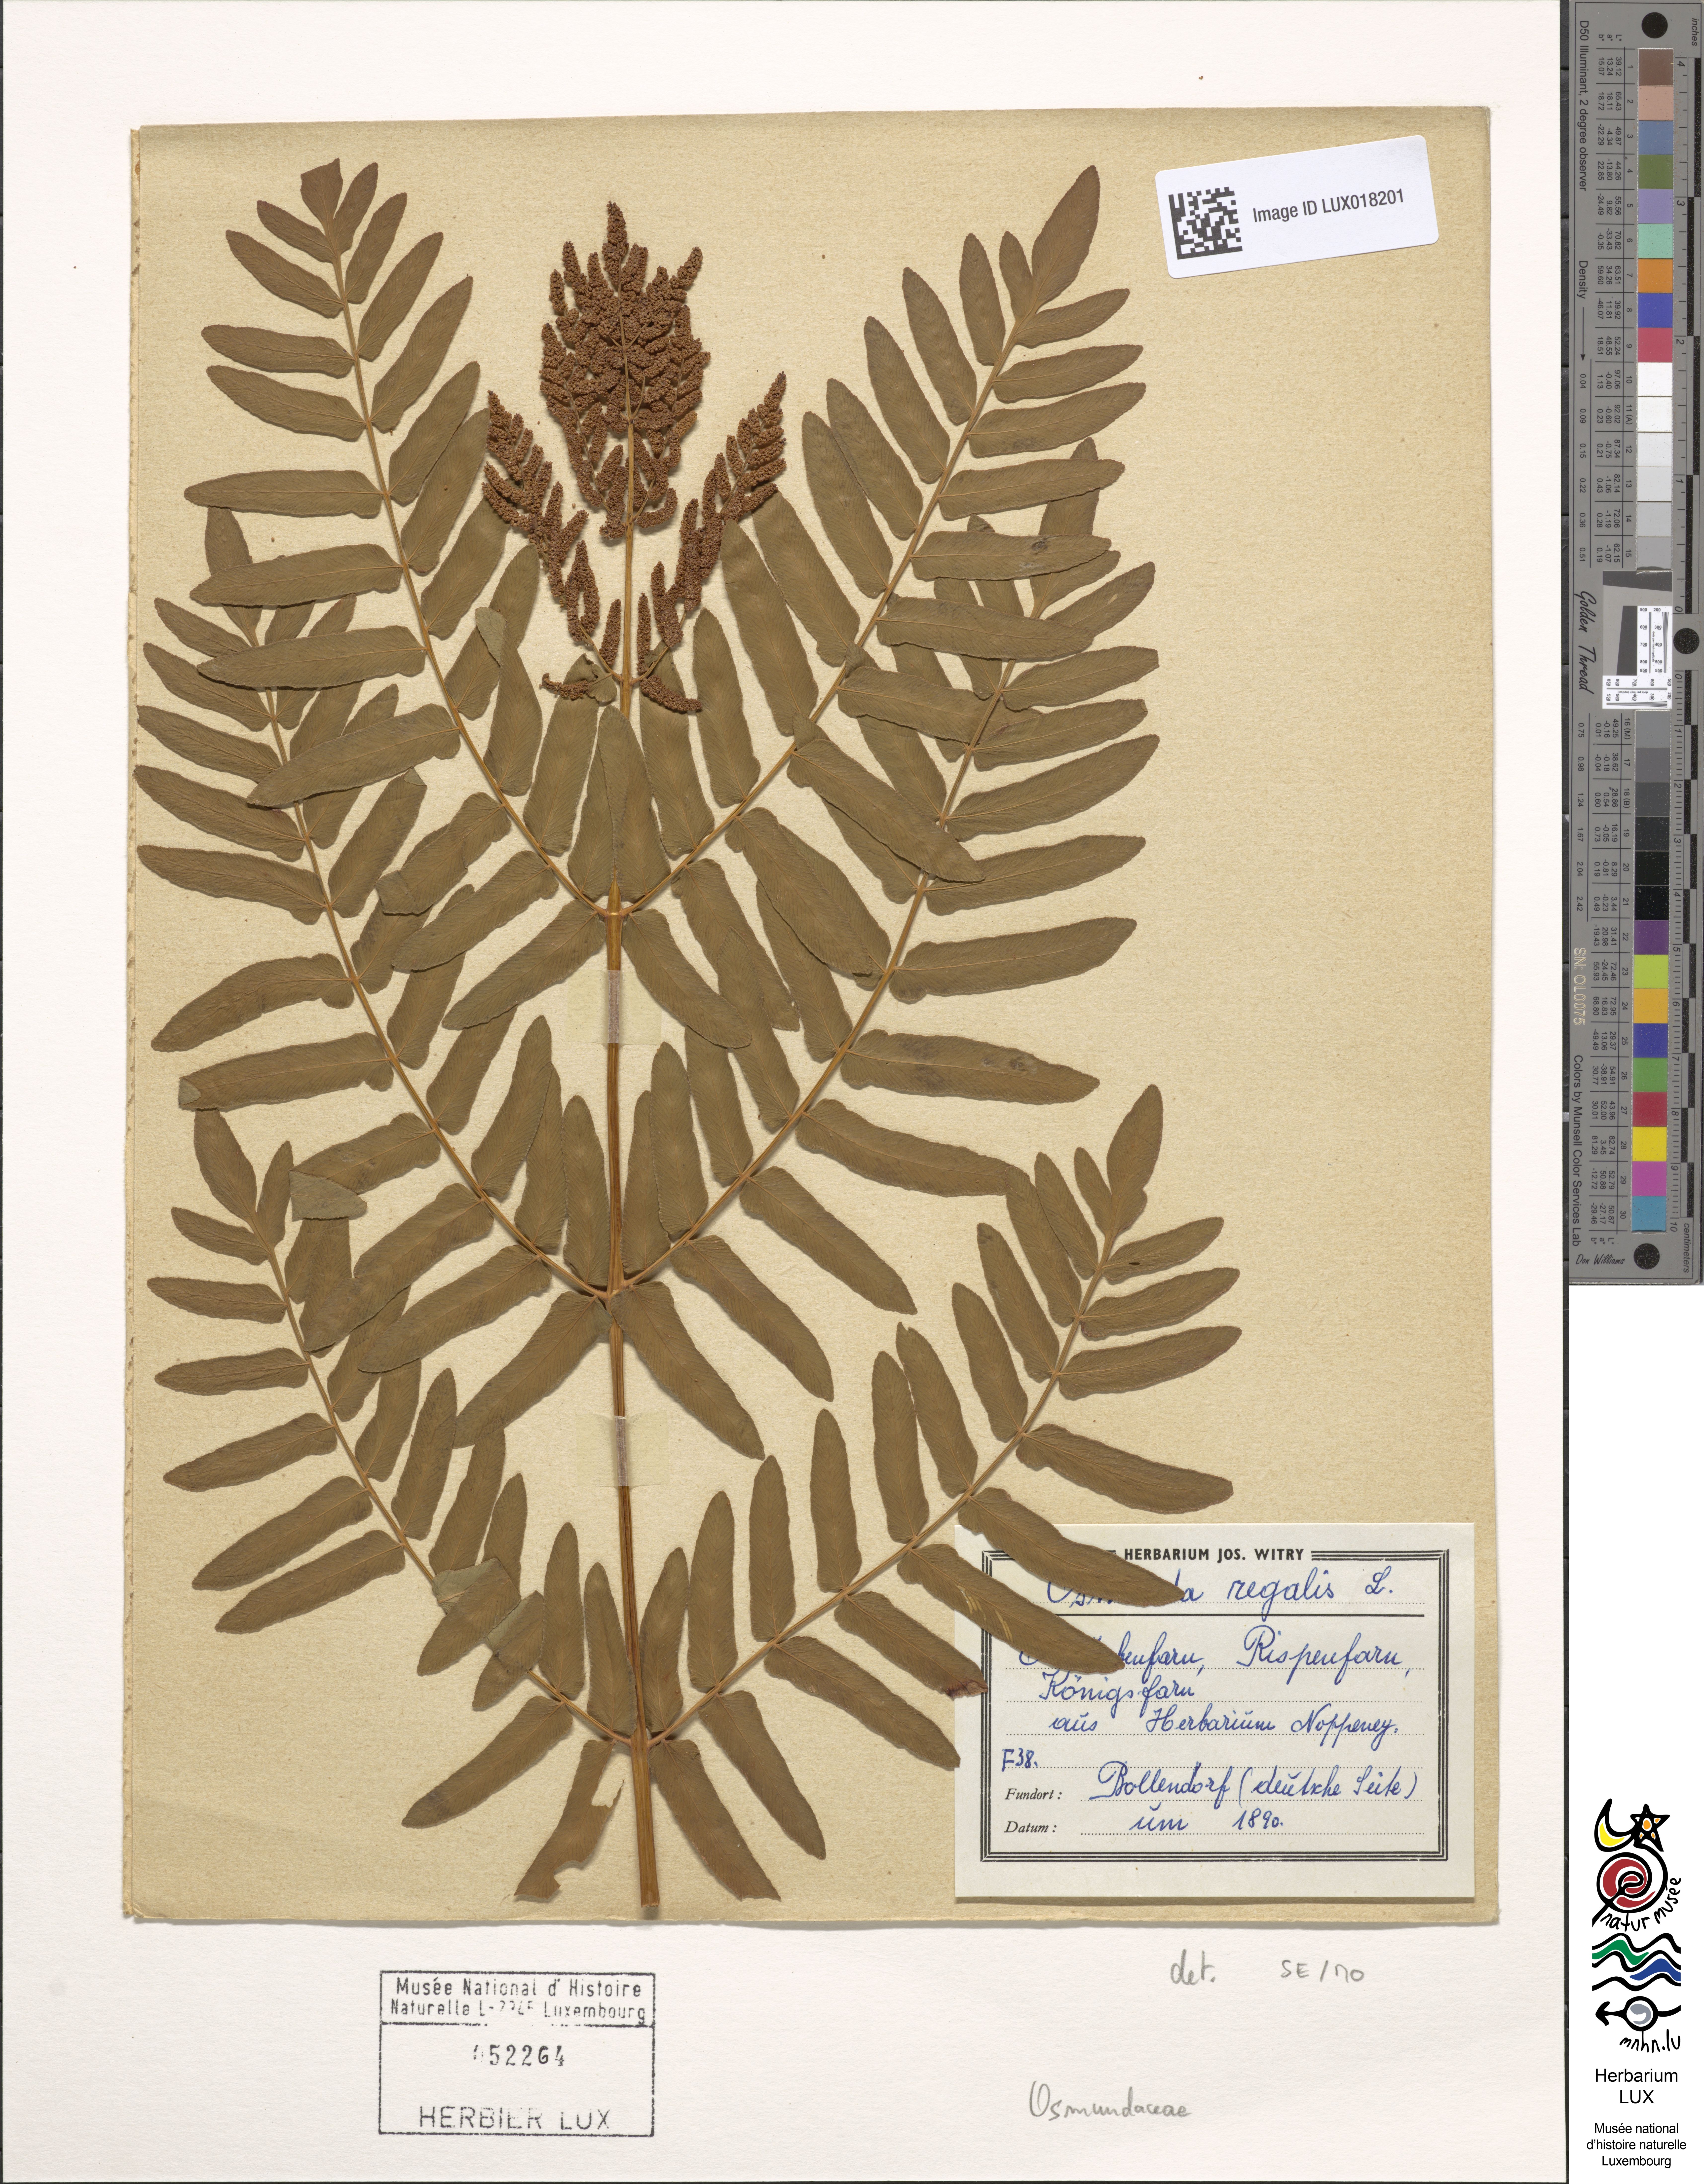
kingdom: Plantae
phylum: Tracheophyta
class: Polypodiopsida
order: Osmundales
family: Osmundaceae
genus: Osmunda
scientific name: Osmunda regalis
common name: Royal fern
